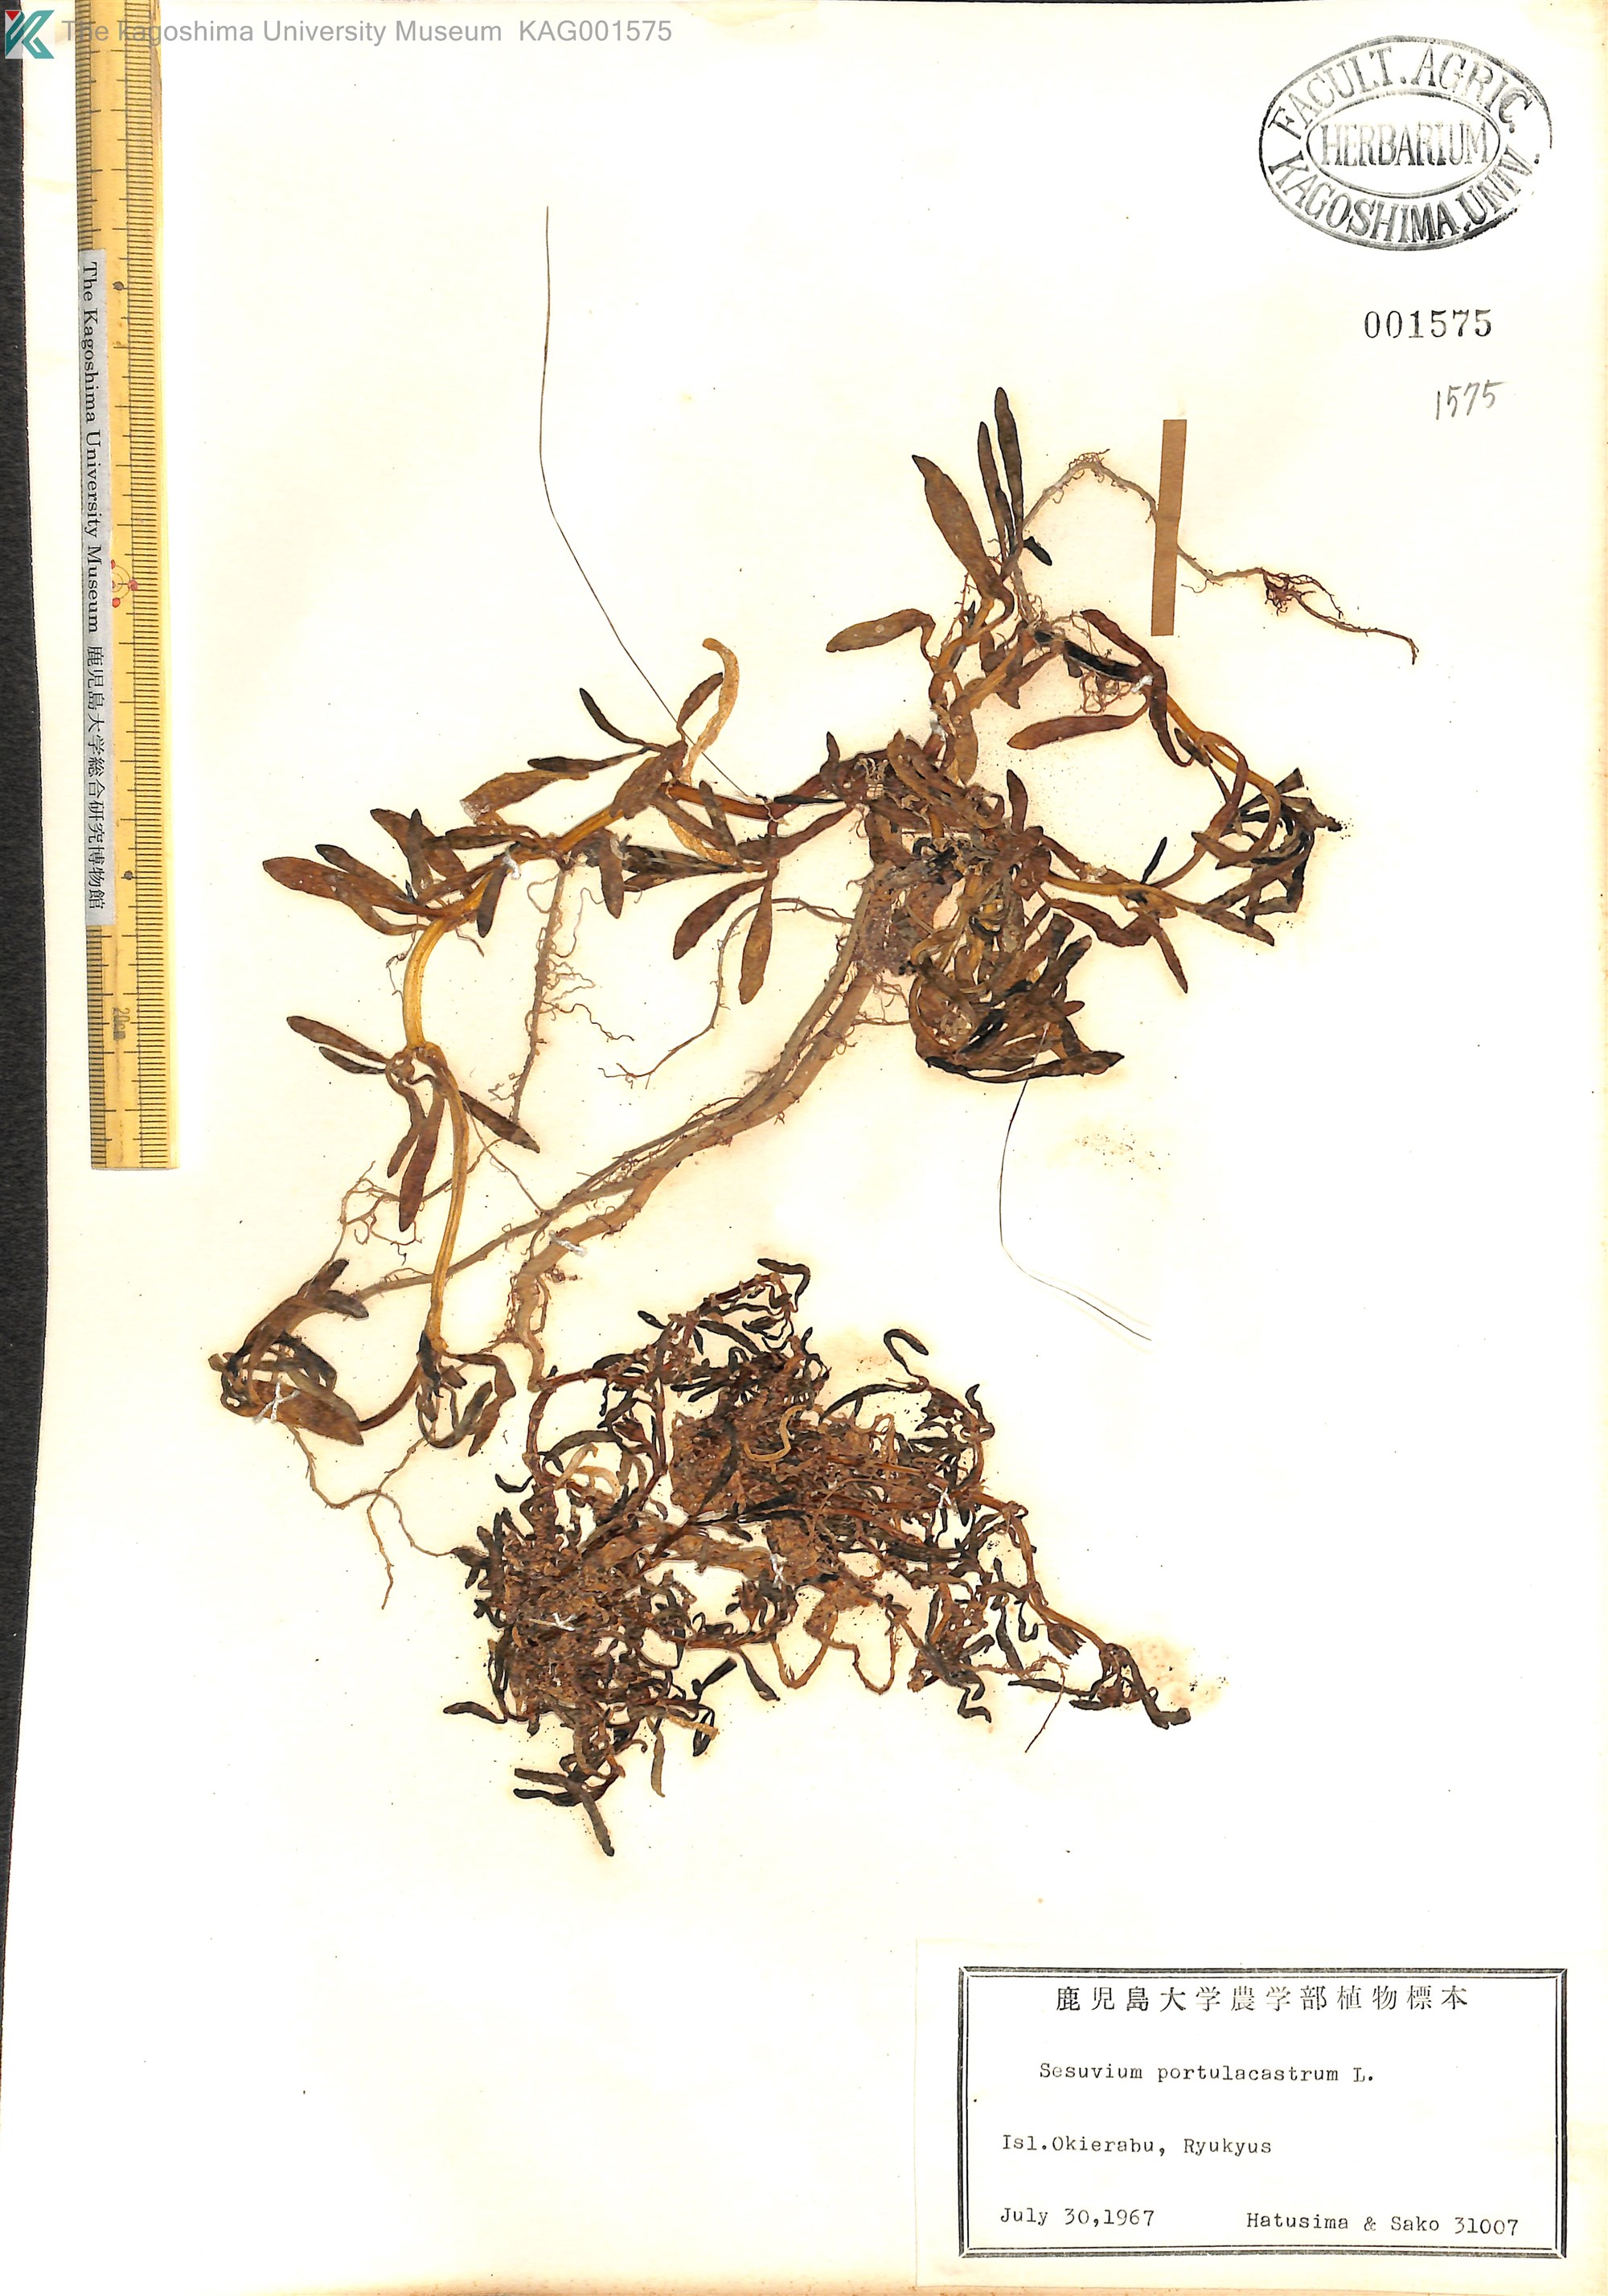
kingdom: Plantae
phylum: Tracheophyta
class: Magnoliopsida
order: Caryophyllales
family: Aizoaceae
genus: Sesuvium
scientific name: Sesuvium portulacastrum
